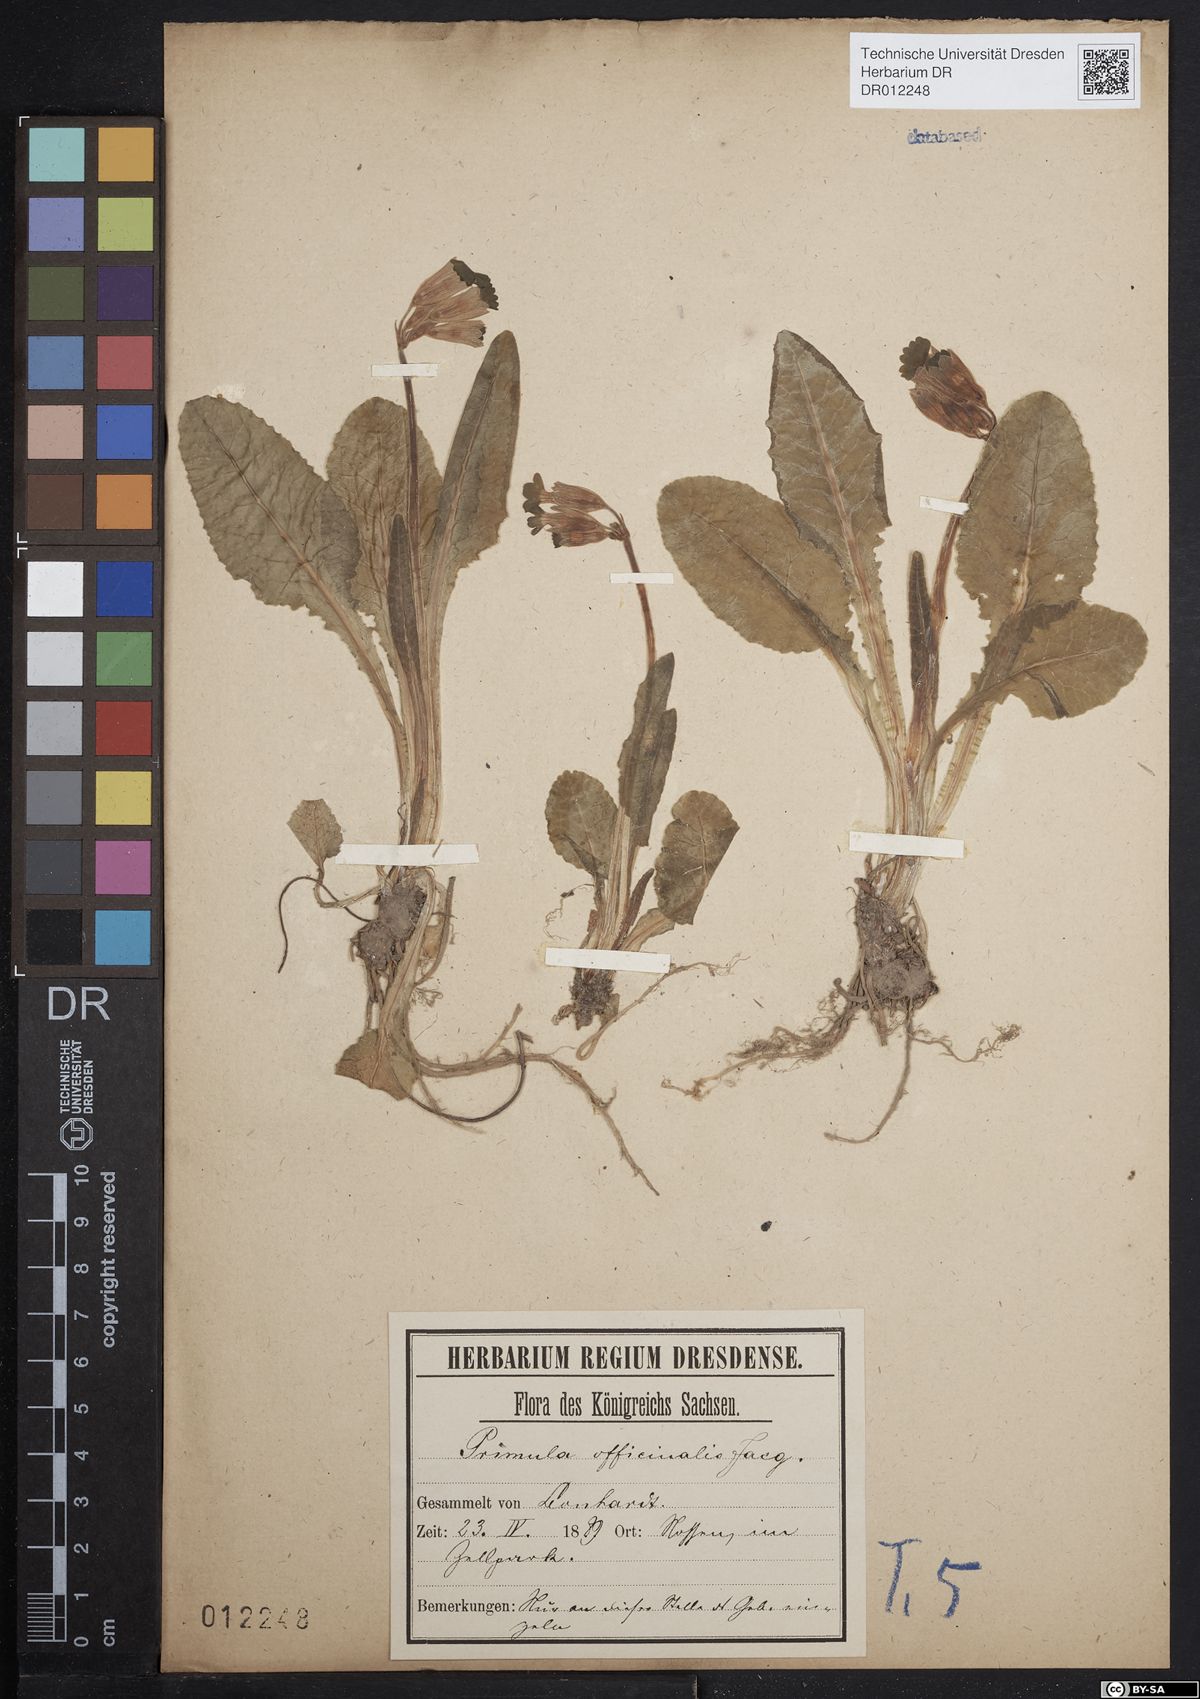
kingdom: Plantae
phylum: Tracheophyta
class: Magnoliopsida
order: Ericales
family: Primulaceae
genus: Primula
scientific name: Primula veris
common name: Cowslip
